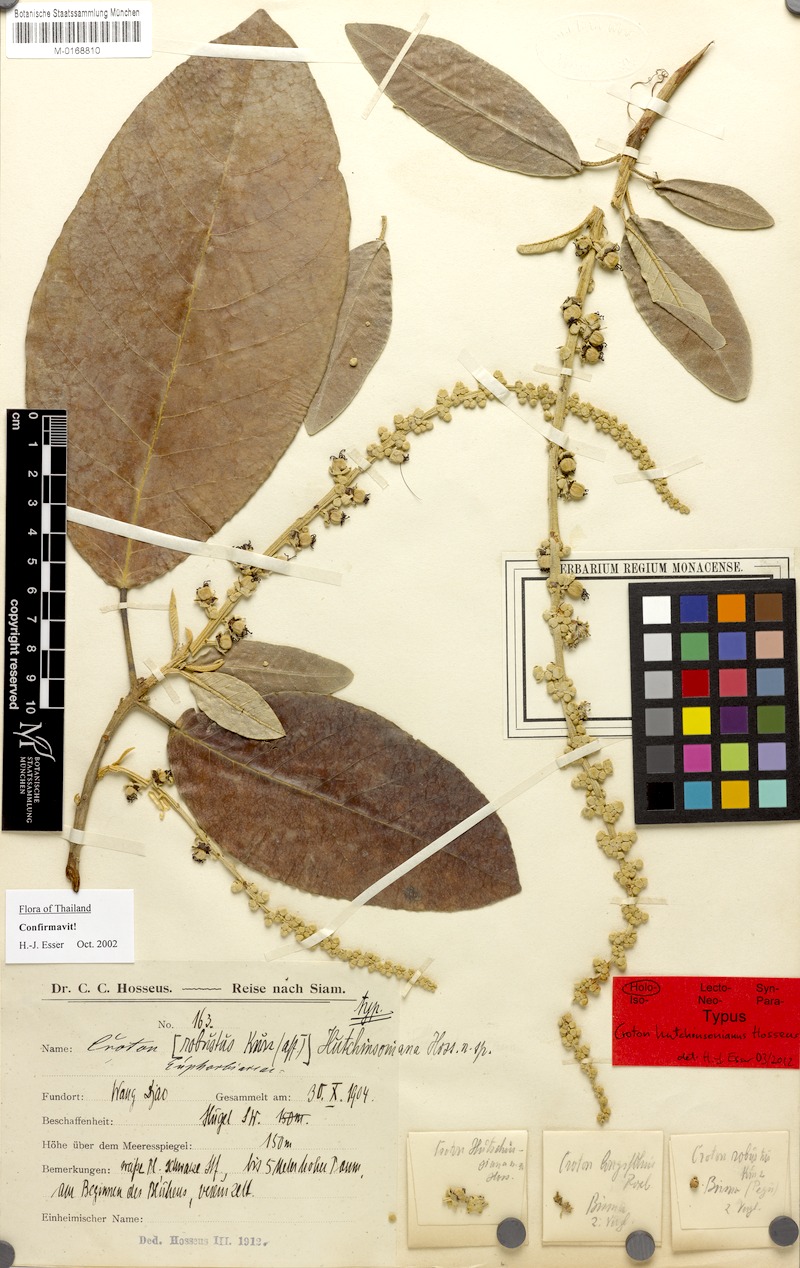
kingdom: Plantae
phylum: Tracheophyta
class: Magnoliopsida
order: Malpighiales
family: Euphorbiaceae
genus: Croton
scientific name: Croton hutchinsonianus
